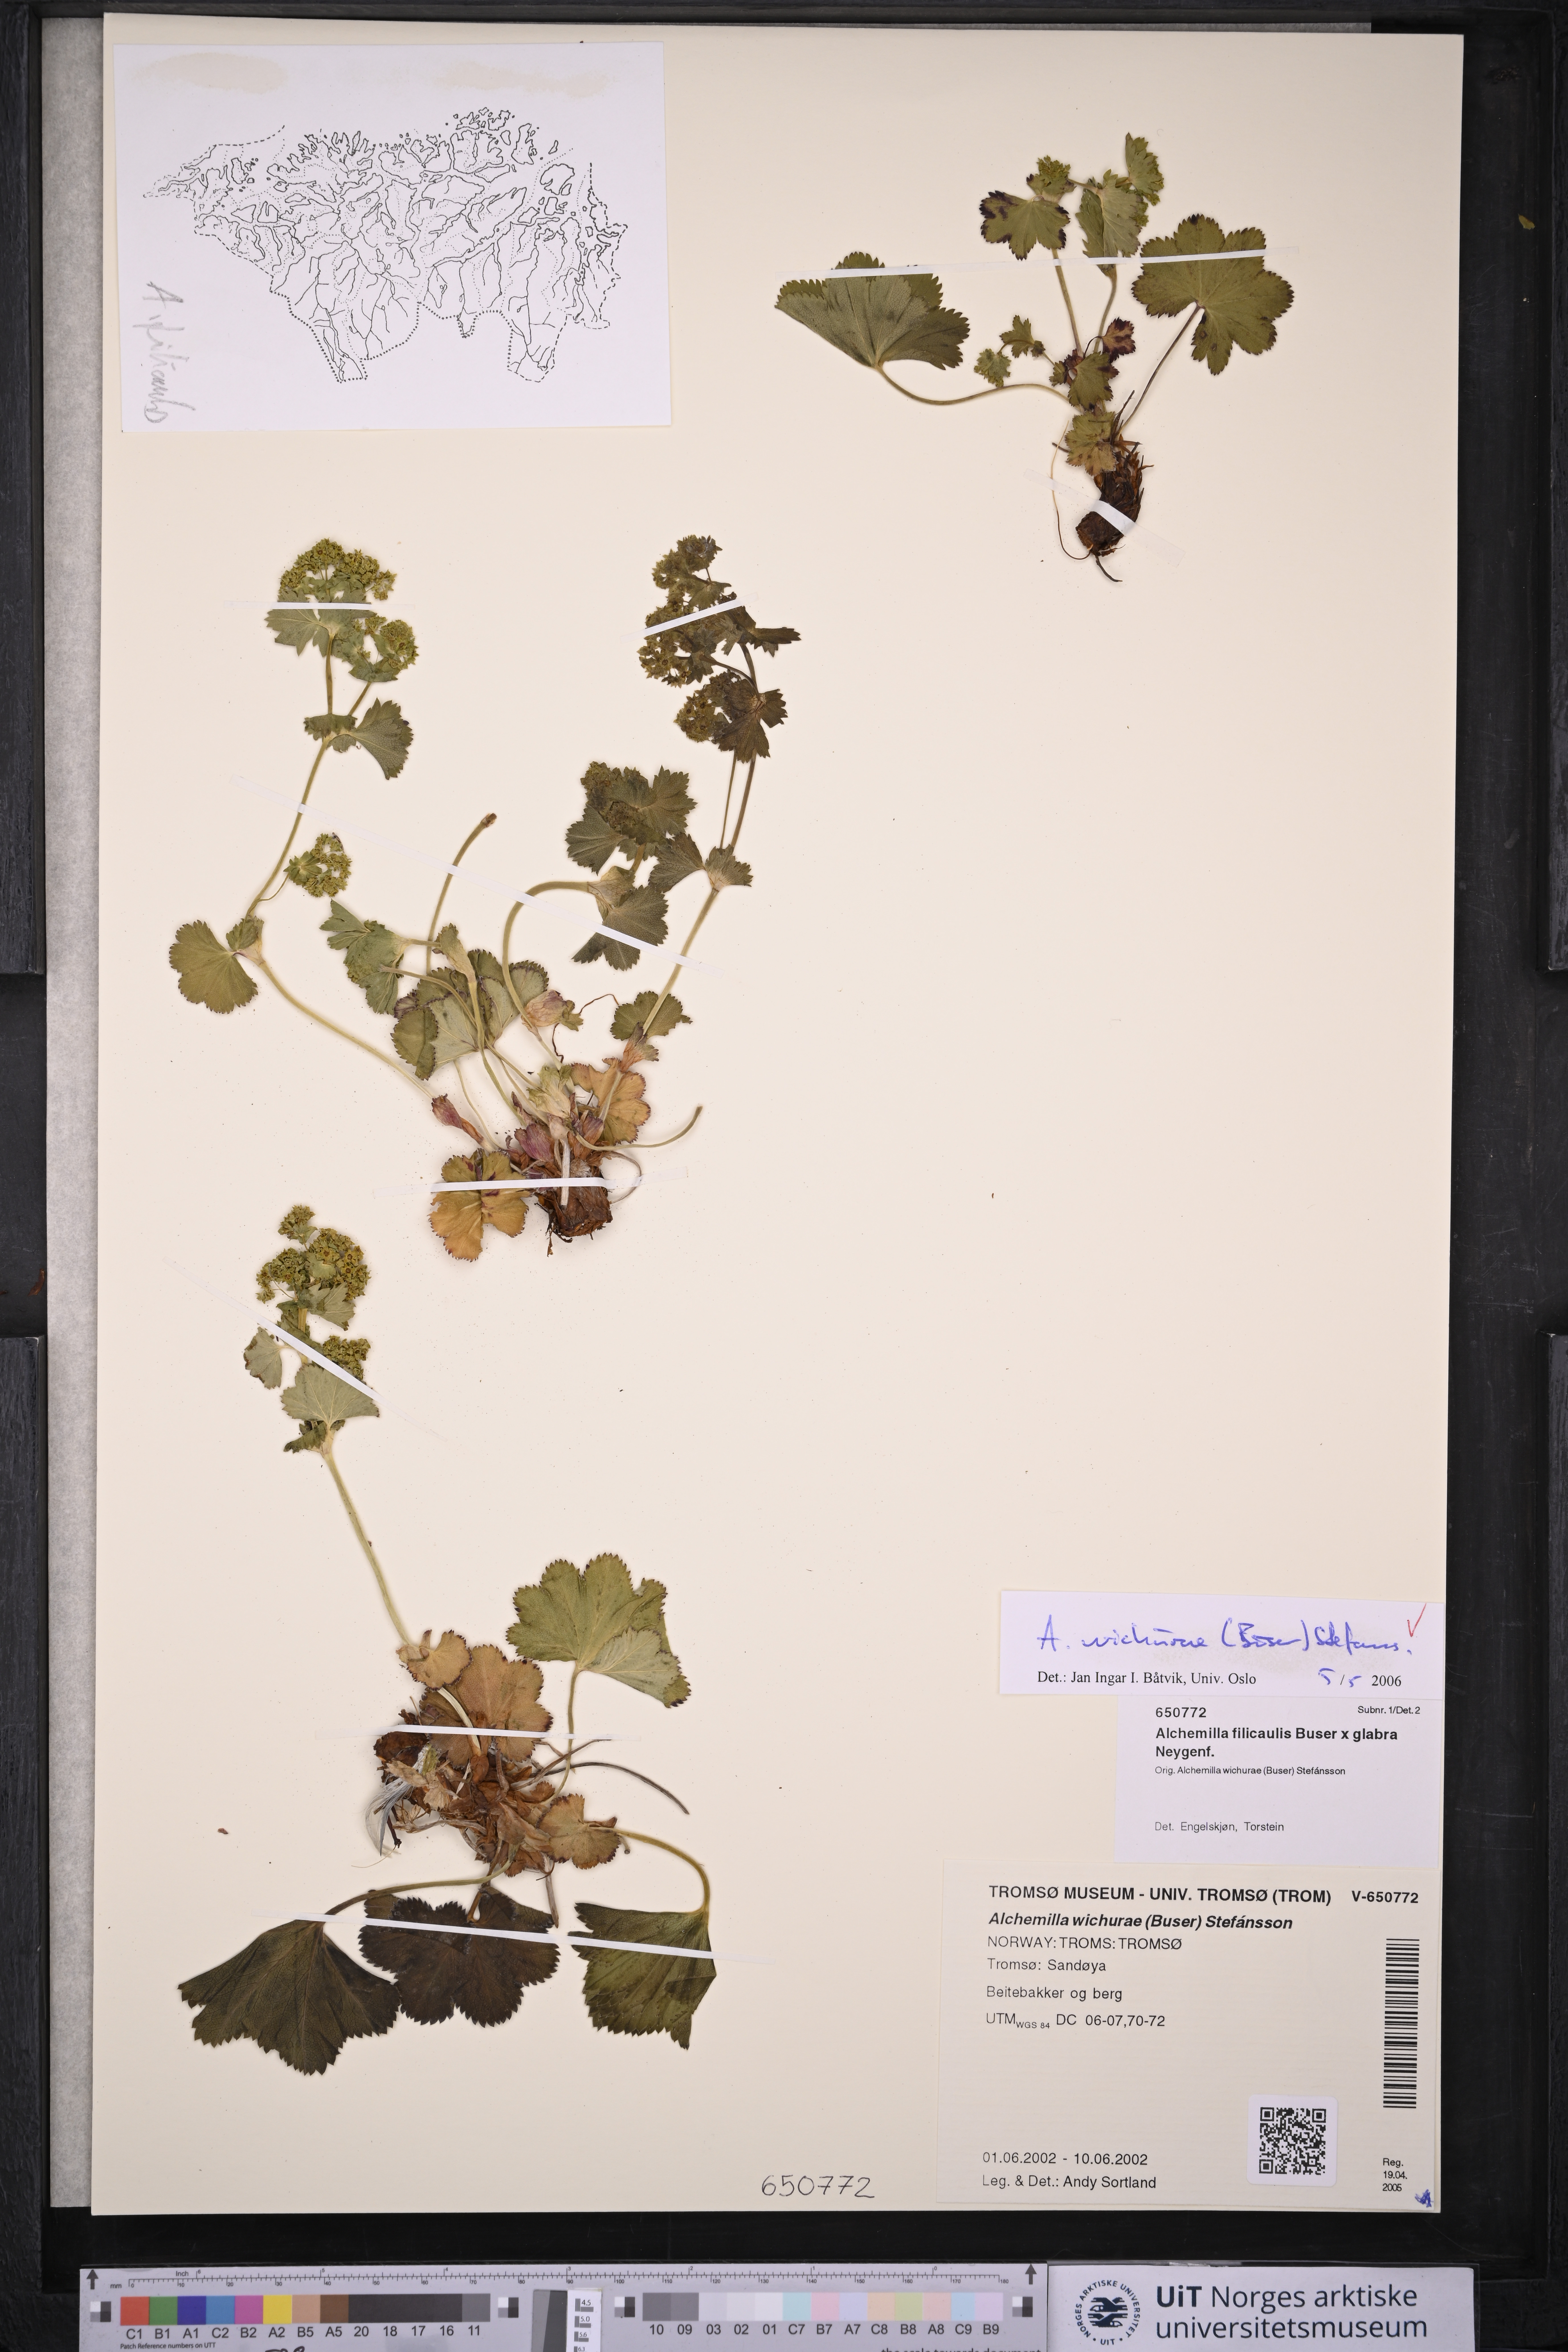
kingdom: Plantae
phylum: Tracheophyta
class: Magnoliopsida
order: Rosales
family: Rosaceae
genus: Alchemilla
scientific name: Alchemilla wichurae
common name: Rock lady's mantle
